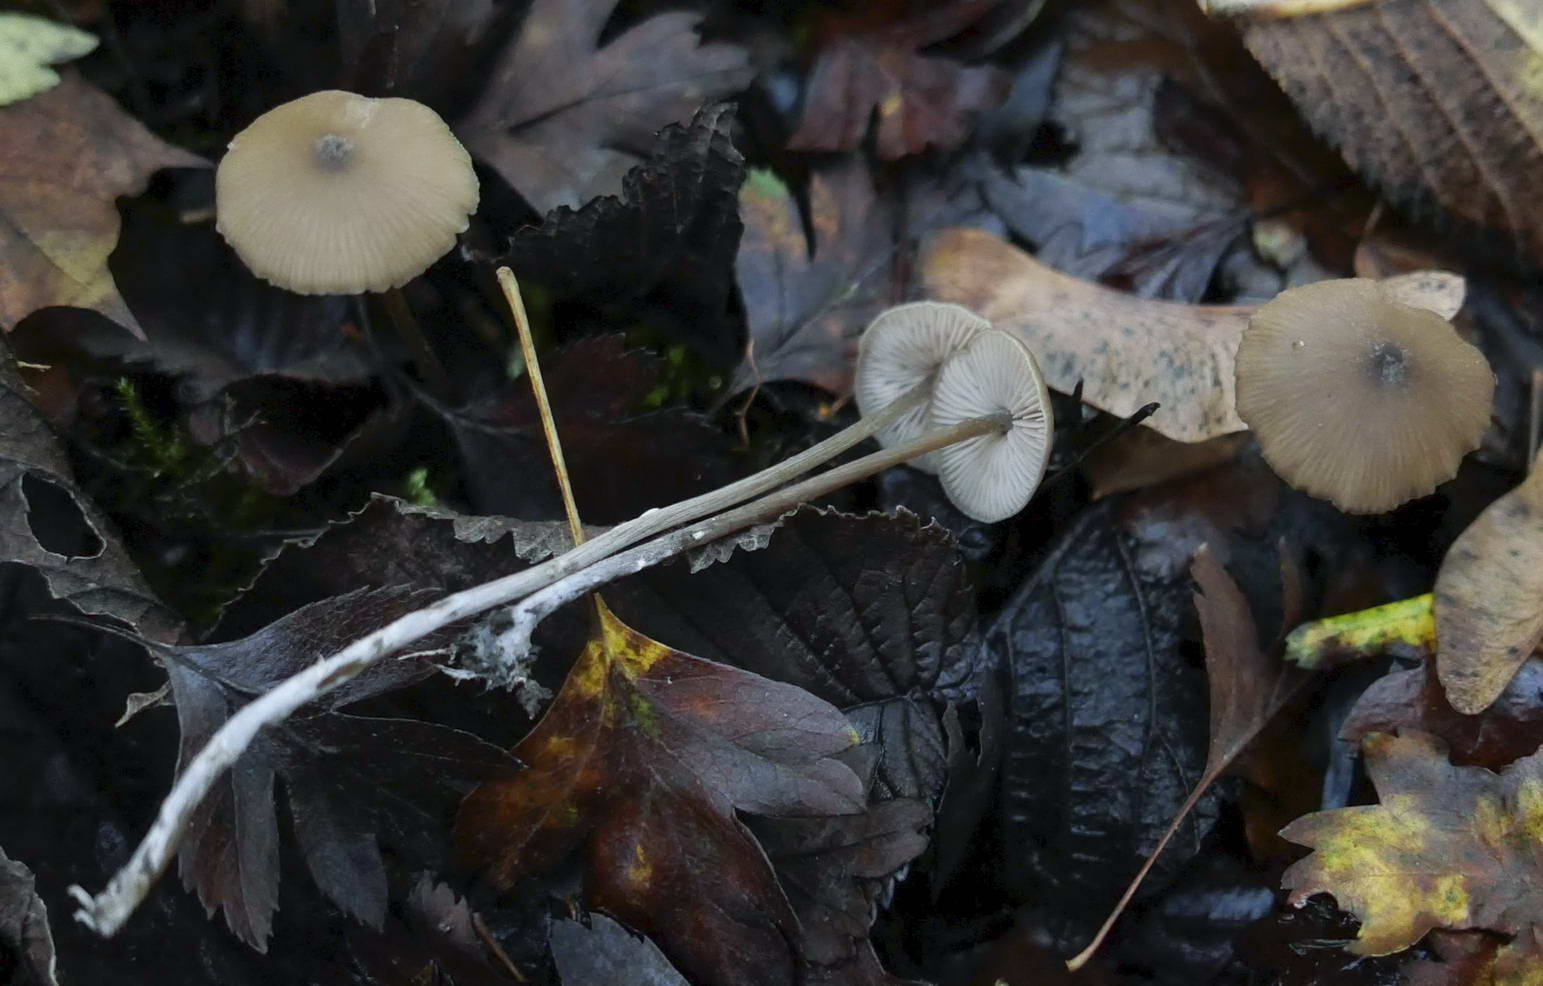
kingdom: Fungi
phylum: Basidiomycota
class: Agaricomycetes
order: Agaricales
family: Entolomataceae
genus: Entoloma
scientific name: Entoloma
